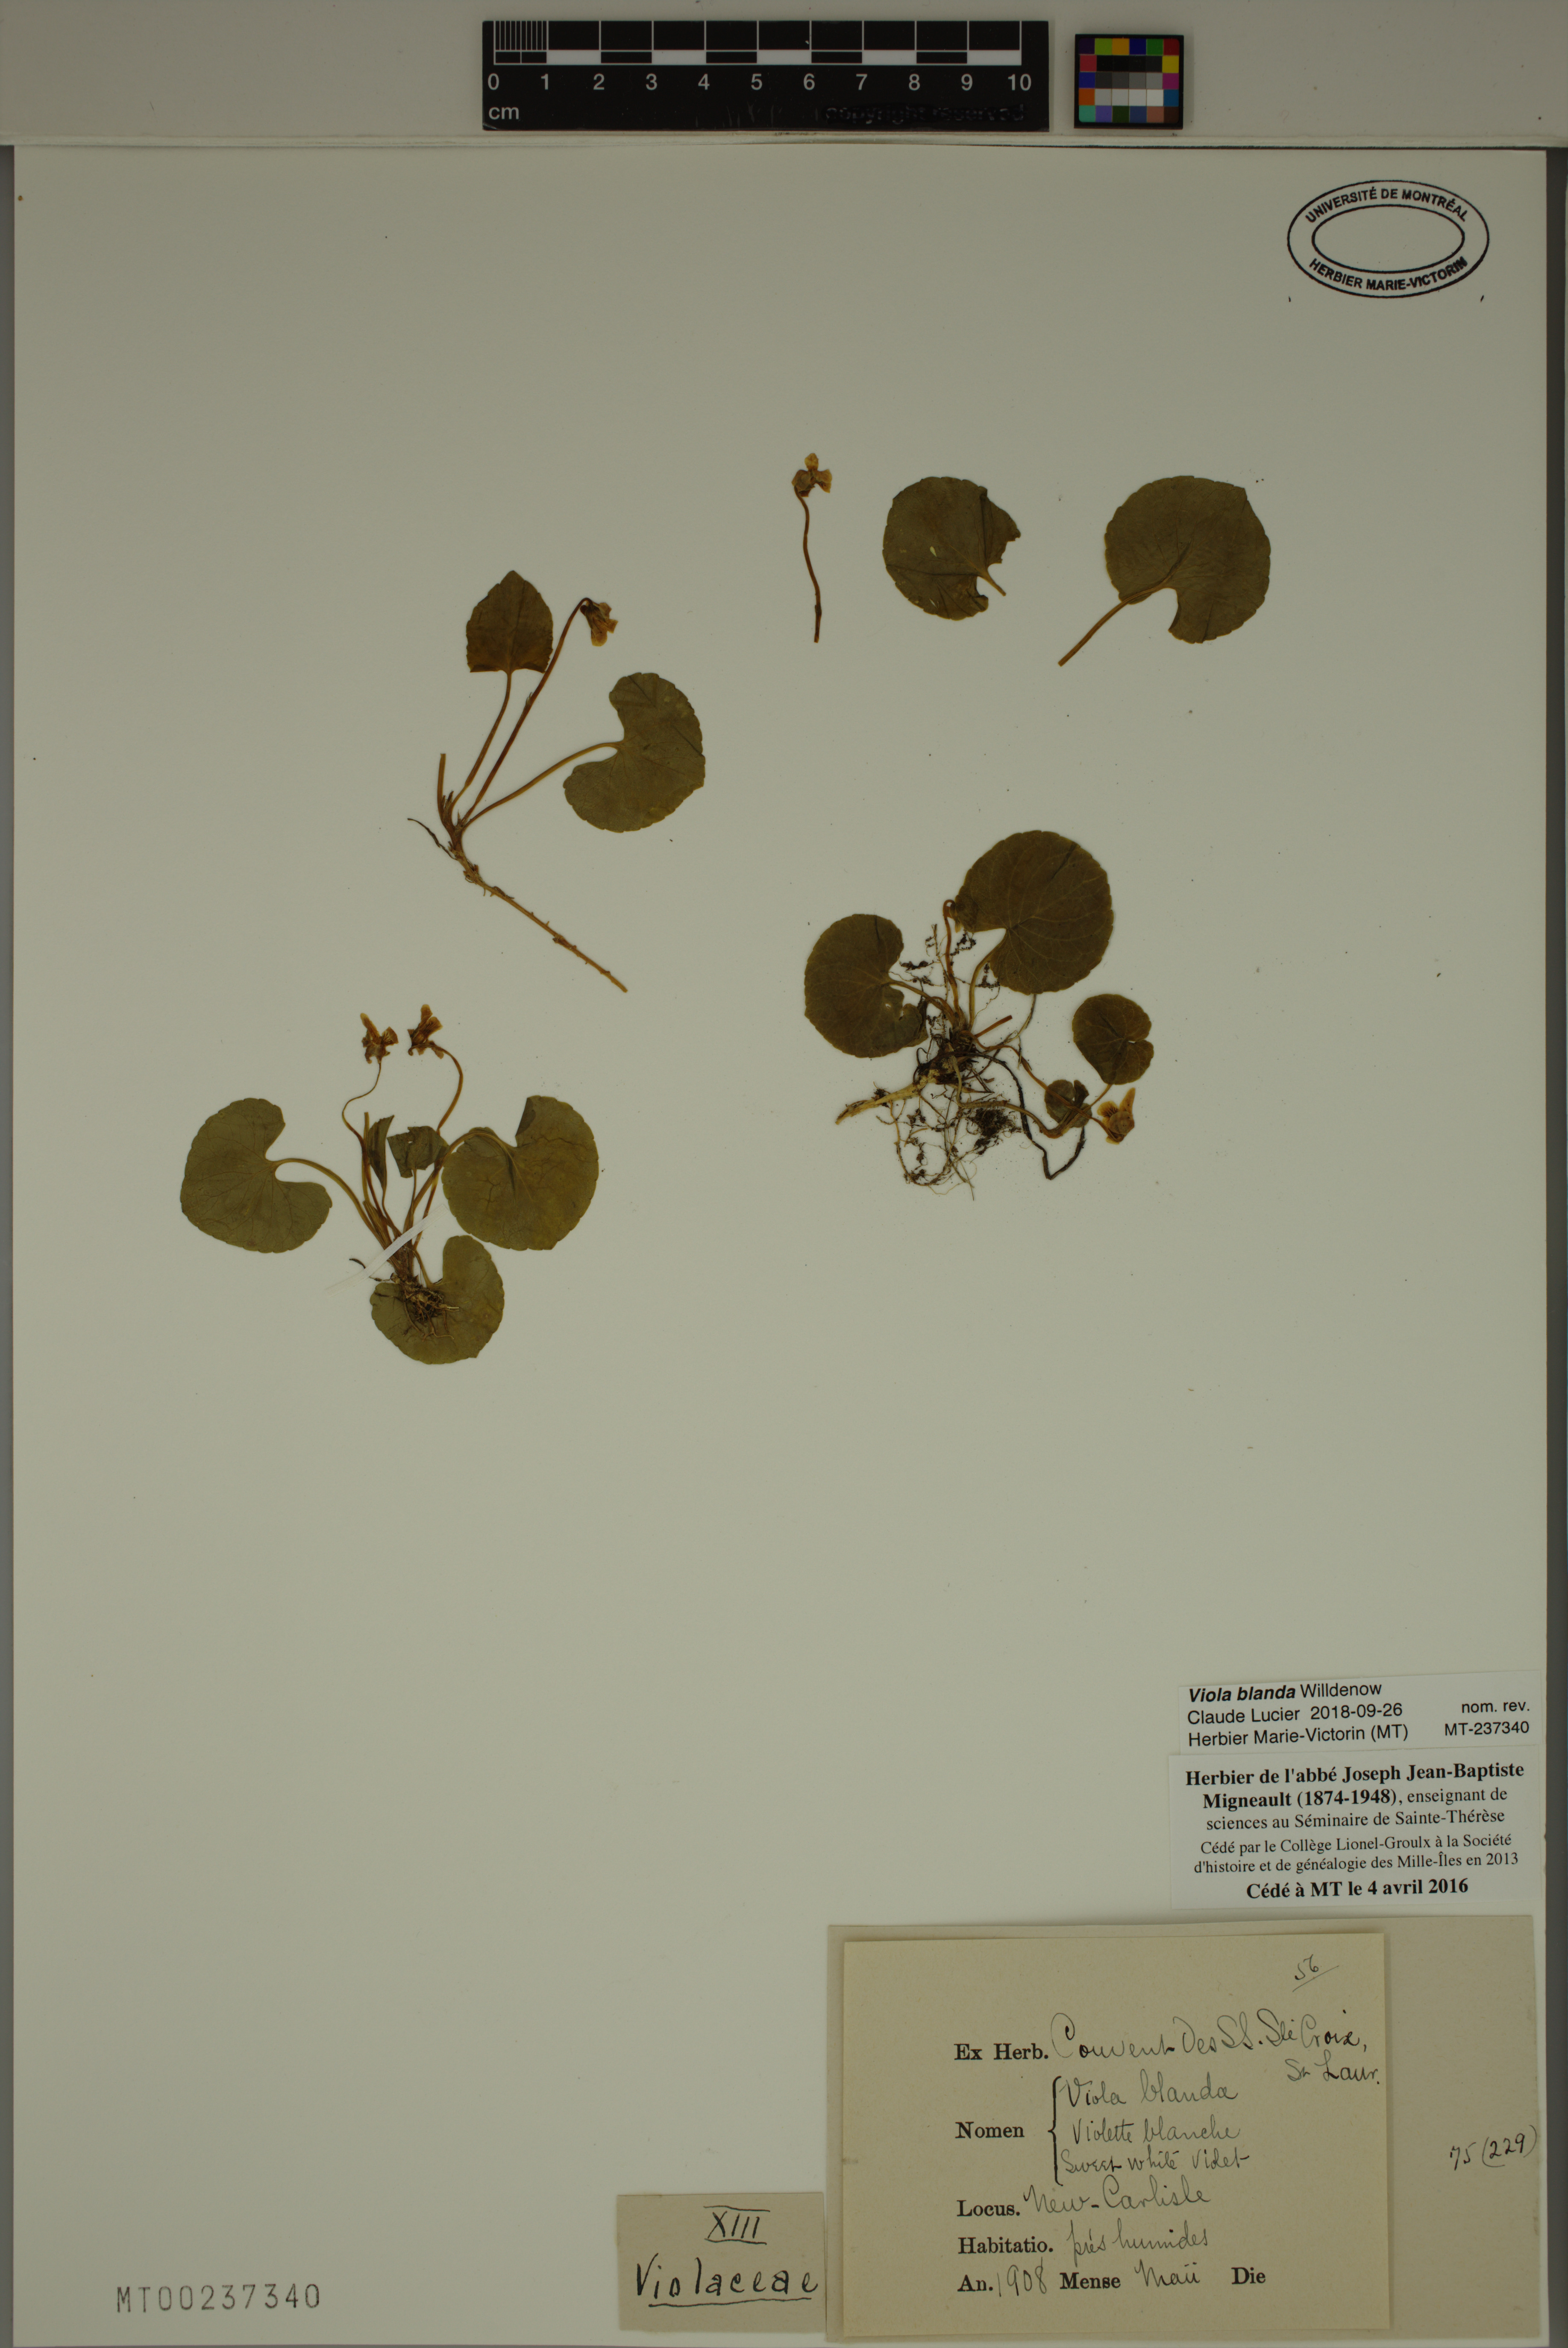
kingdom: Plantae
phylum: Tracheophyta
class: Magnoliopsida
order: Malpighiales
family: Violaceae
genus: Viola
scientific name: Viola blanda
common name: Sweet white violet
